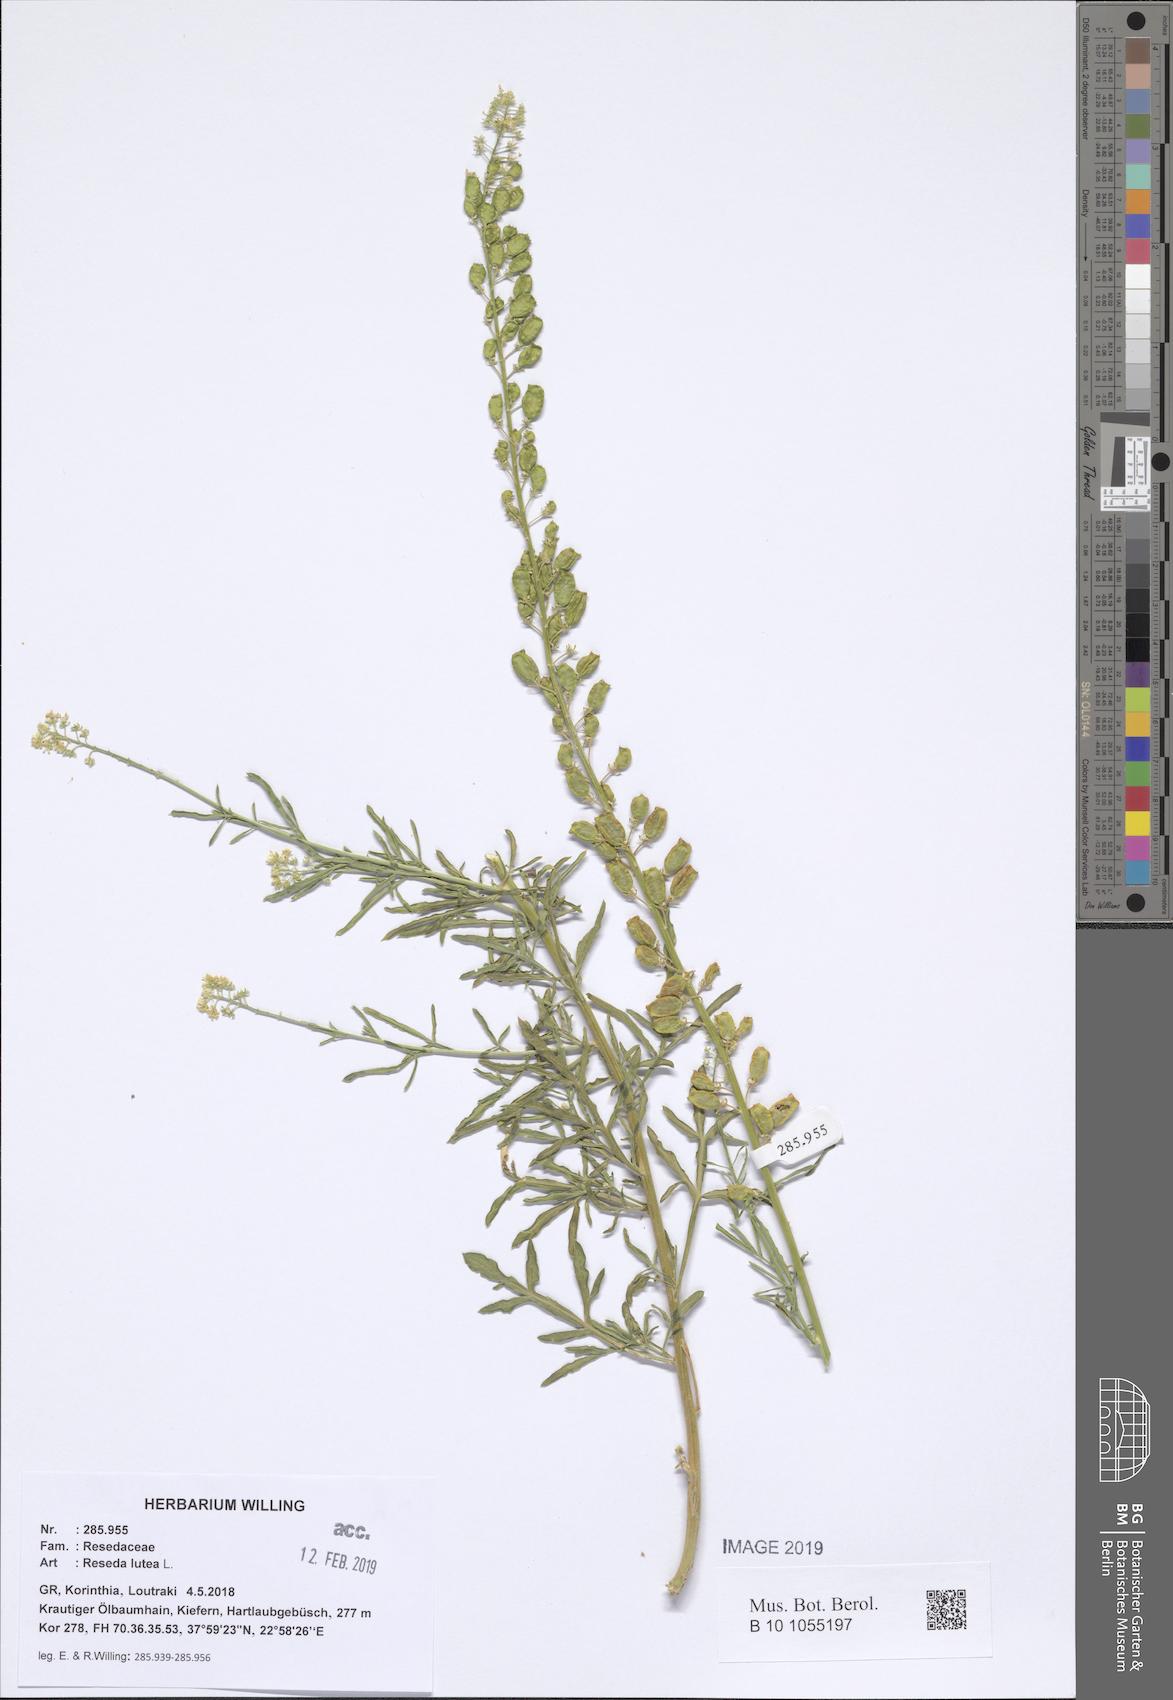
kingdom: Plantae
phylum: Tracheophyta
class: Magnoliopsida
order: Brassicales
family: Resedaceae
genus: Reseda
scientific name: Reseda lutea
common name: Wild mignonette
